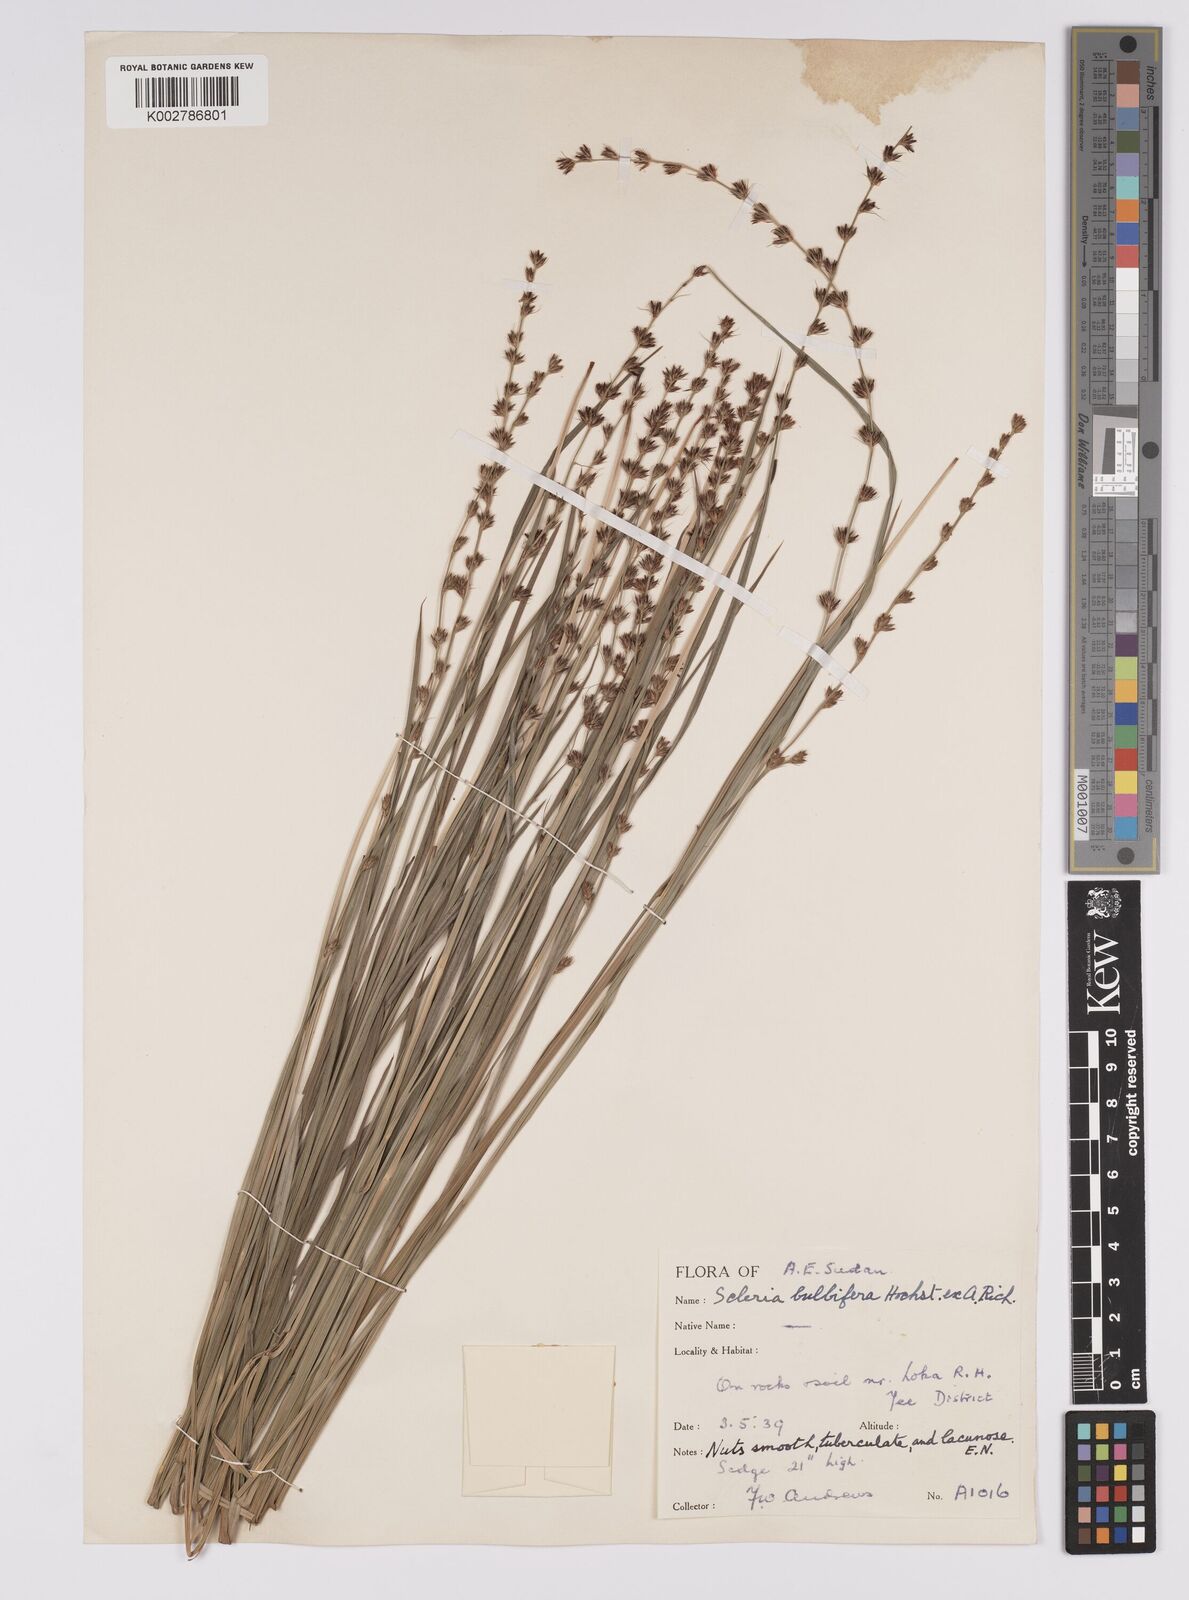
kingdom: Plantae
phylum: Tracheophyta
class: Liliopsida
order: Poales
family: Cyperaceae
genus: Scleria
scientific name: Scleria bulbifera
